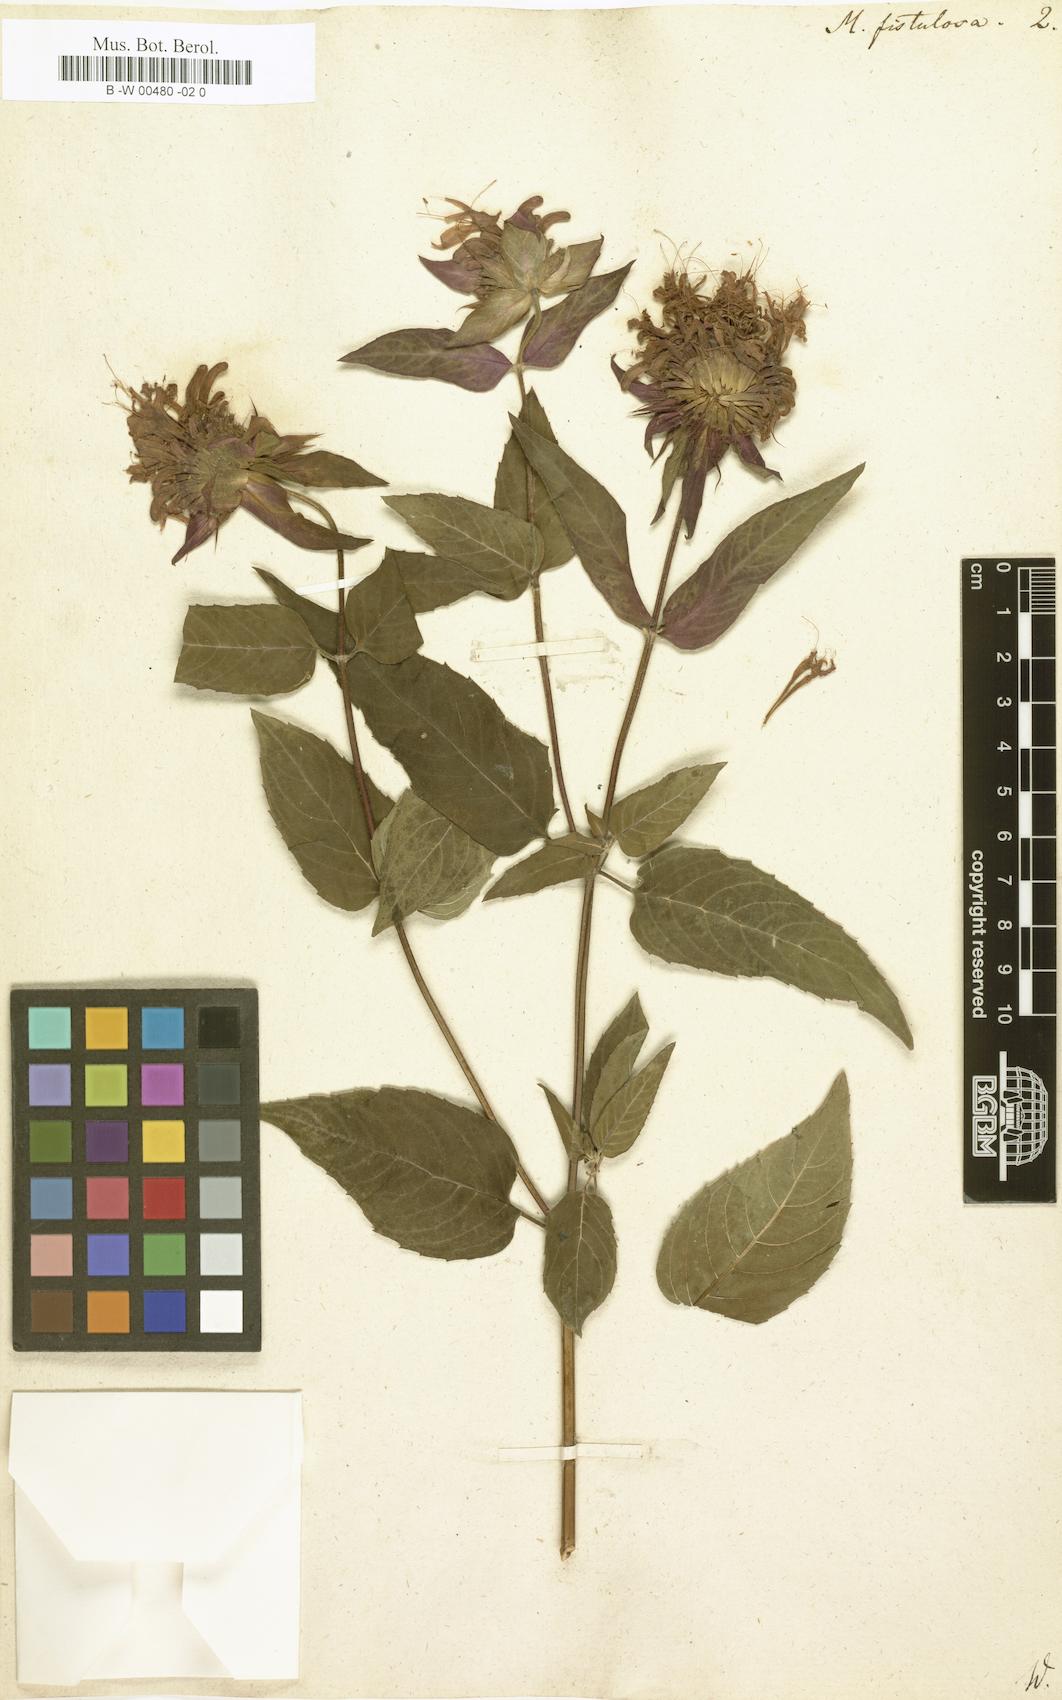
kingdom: Plantae
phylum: Tracheophyta
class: Magnoliopsida
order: Lamiales
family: Lamiaceae
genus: Monarda
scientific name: Monarda fistulosa
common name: Purple beebalm
